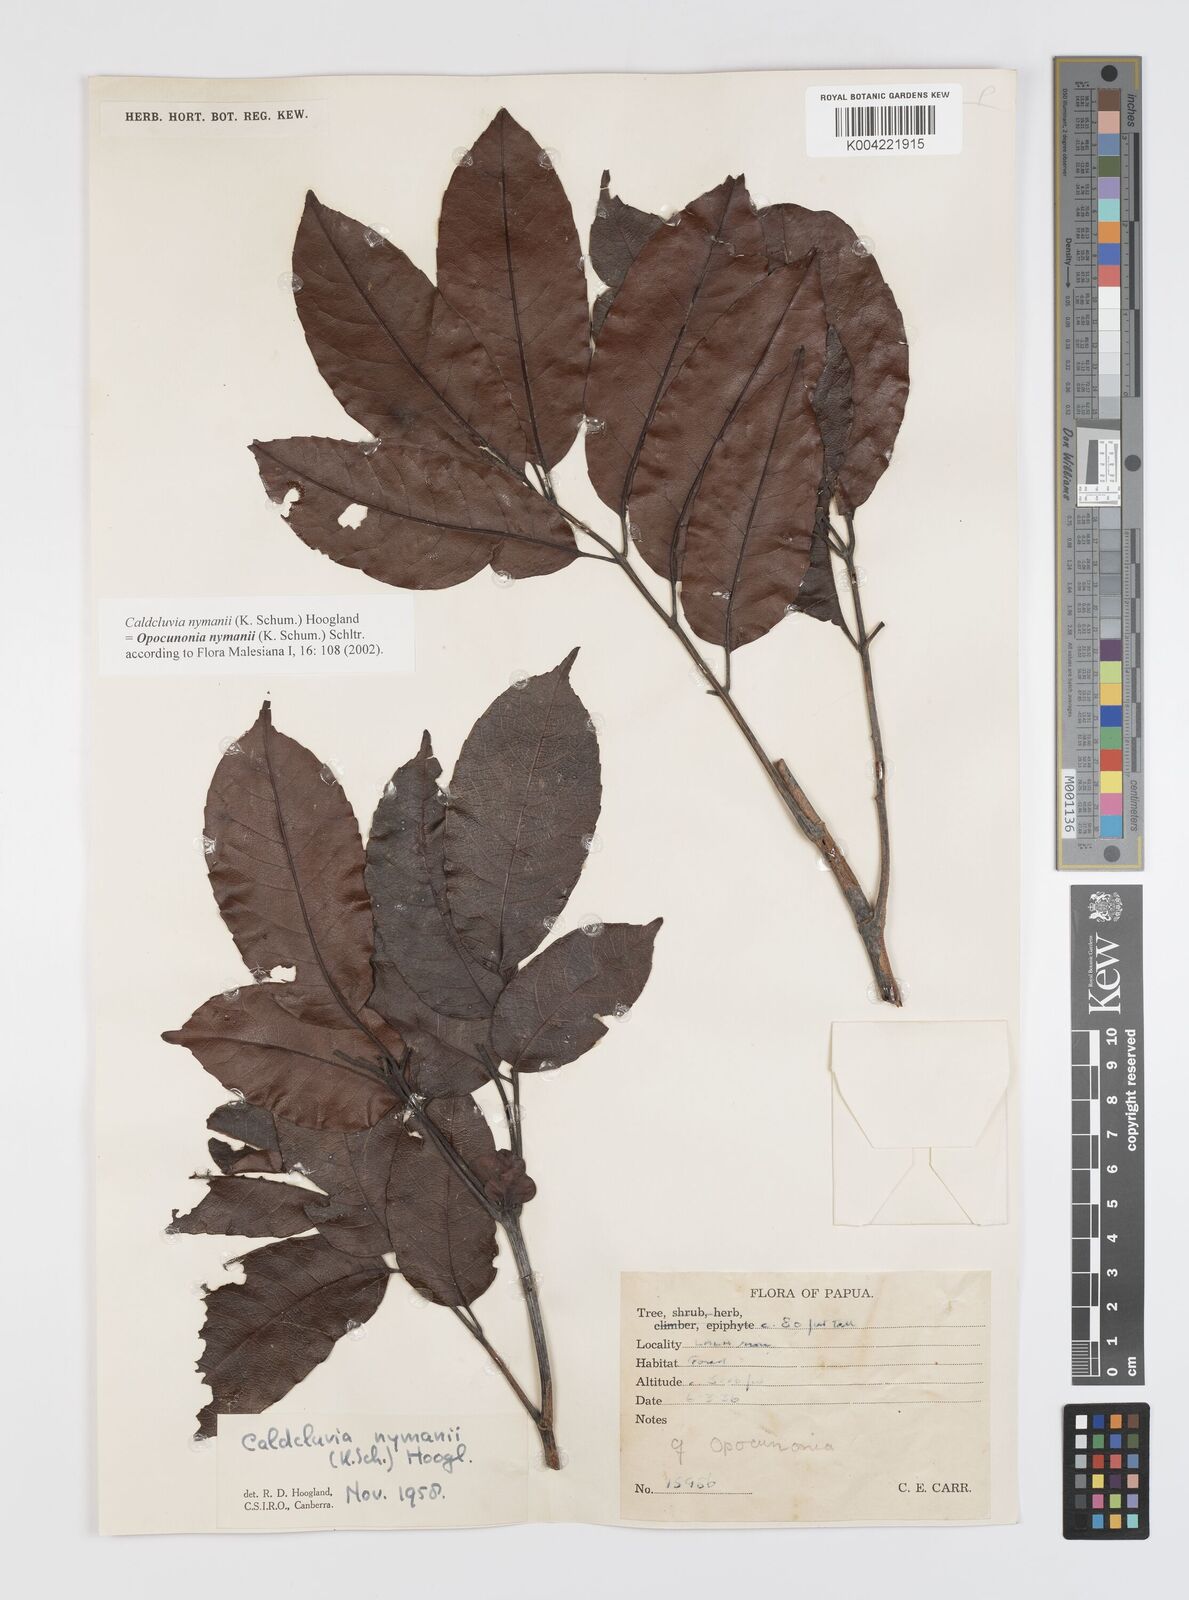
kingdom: Plantae
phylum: Tracheophyta
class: Magnoliopsida
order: Oxalidales
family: Cunoniaceae
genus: Opocunonia
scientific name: Opocunonia nymanii
